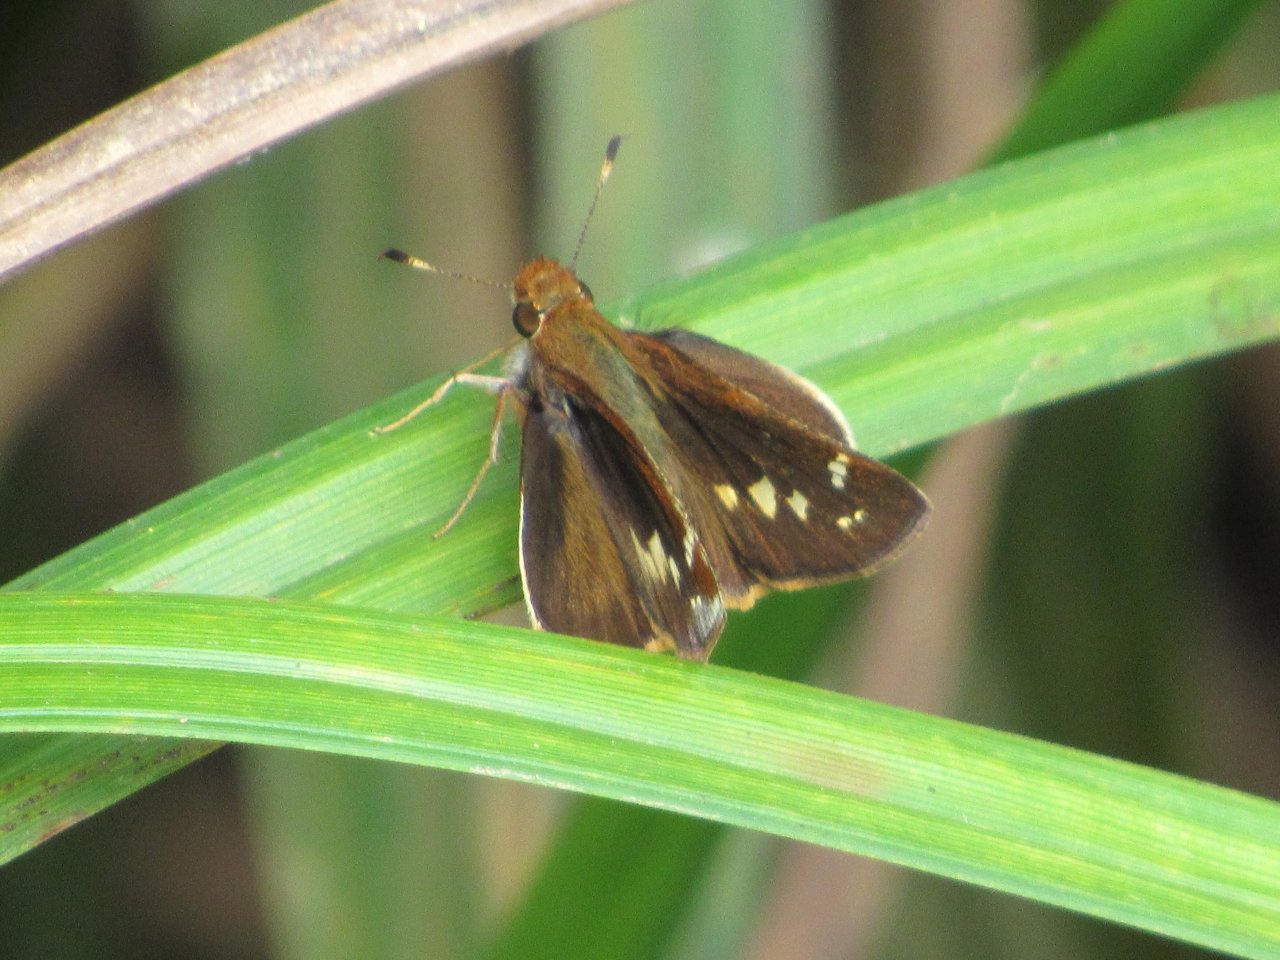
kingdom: Animalia
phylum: Arthropoda
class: Insecta
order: Lepidoptera
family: Hesperiidae
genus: Lon
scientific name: Lon zabulon
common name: Zabulon Skipper
